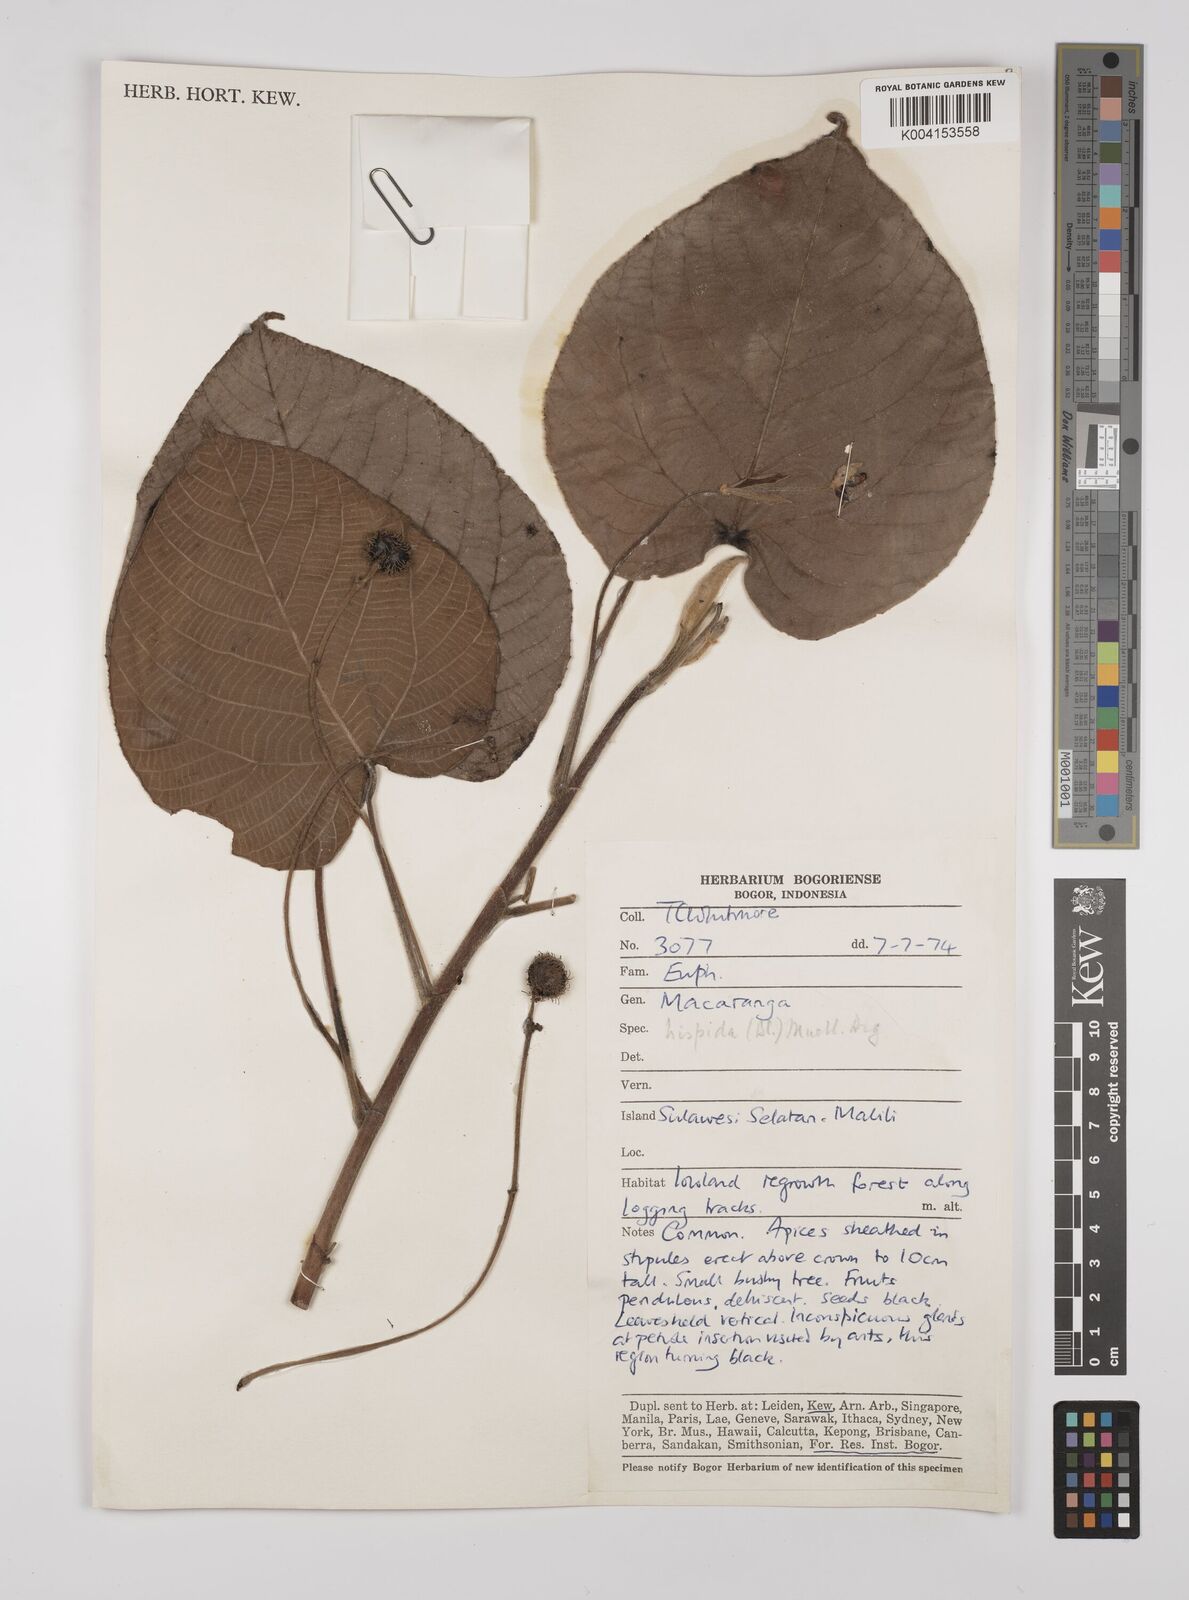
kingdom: Plantae
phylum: Tracheophyta
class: Magnoliopsida
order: Malpighiales
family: Euphorbiaceae
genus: Macaranga
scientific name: Macaranga hispida
